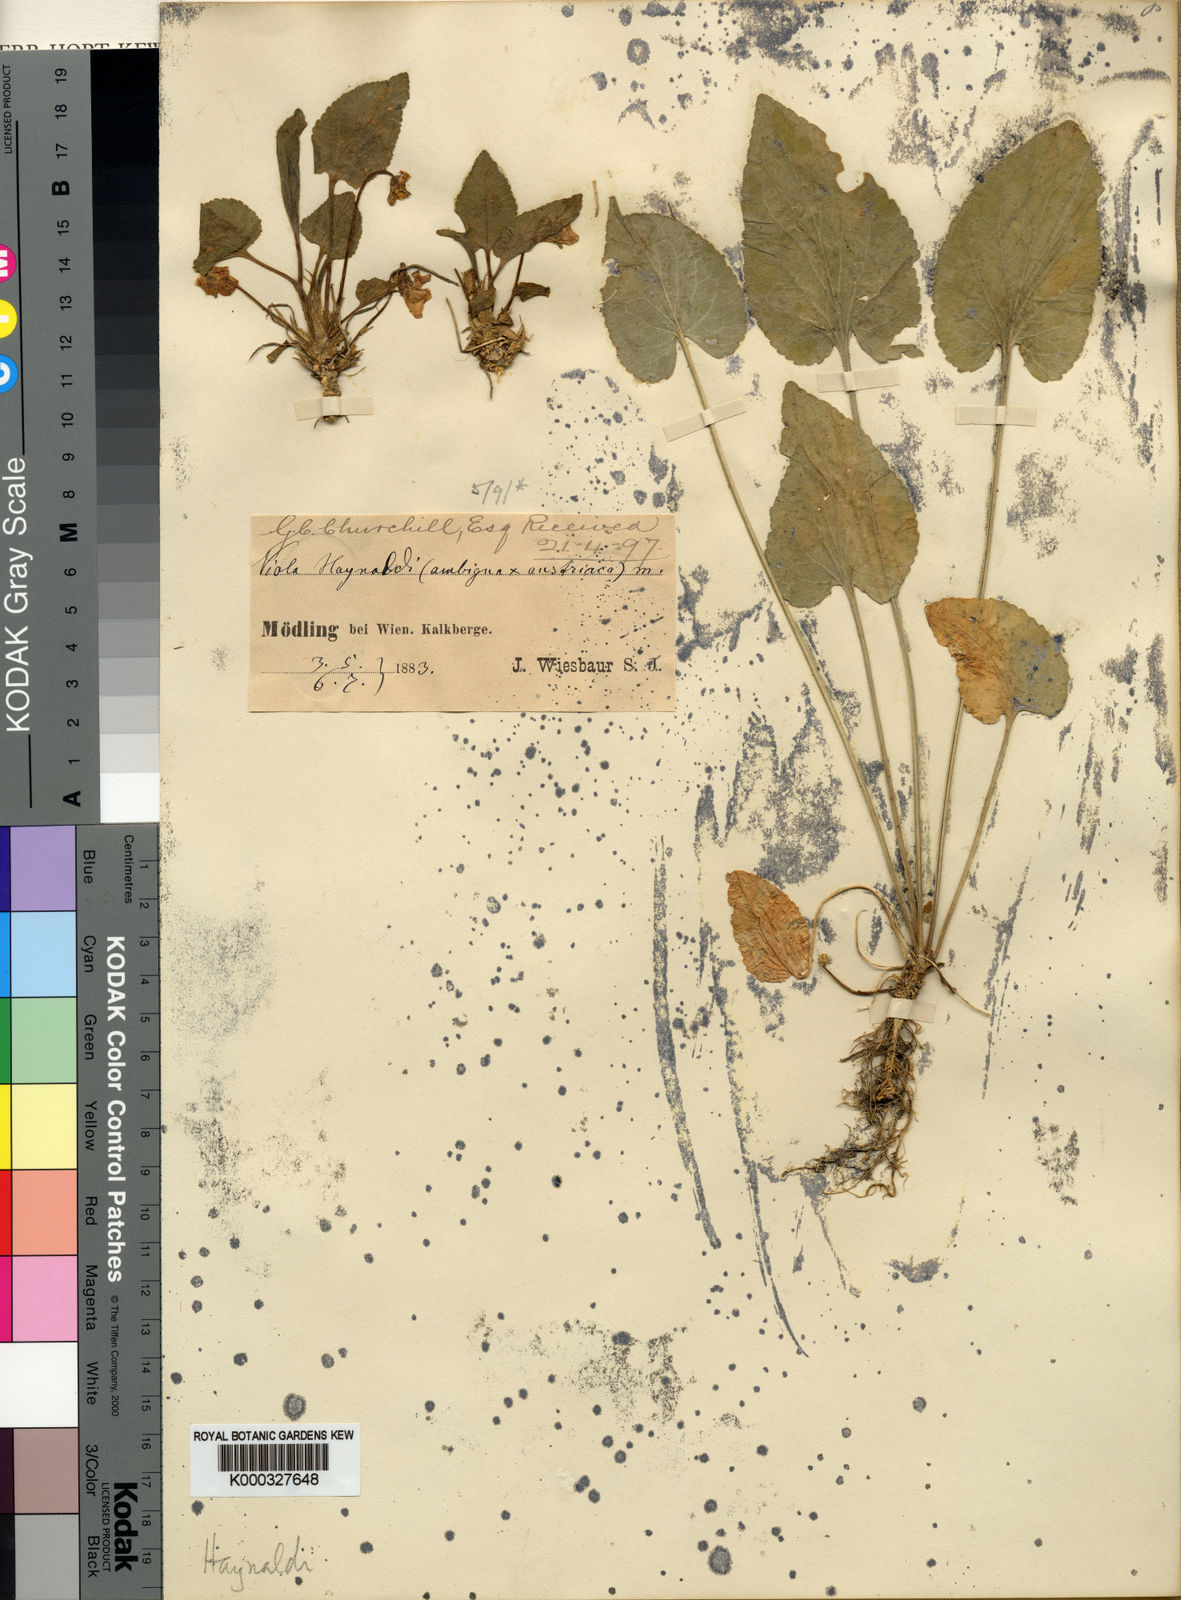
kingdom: Plantae
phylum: Tracheophyta
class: Magnoliopsida
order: Malpighiales
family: Violaceae
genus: Viola
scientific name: Viola ambigua
